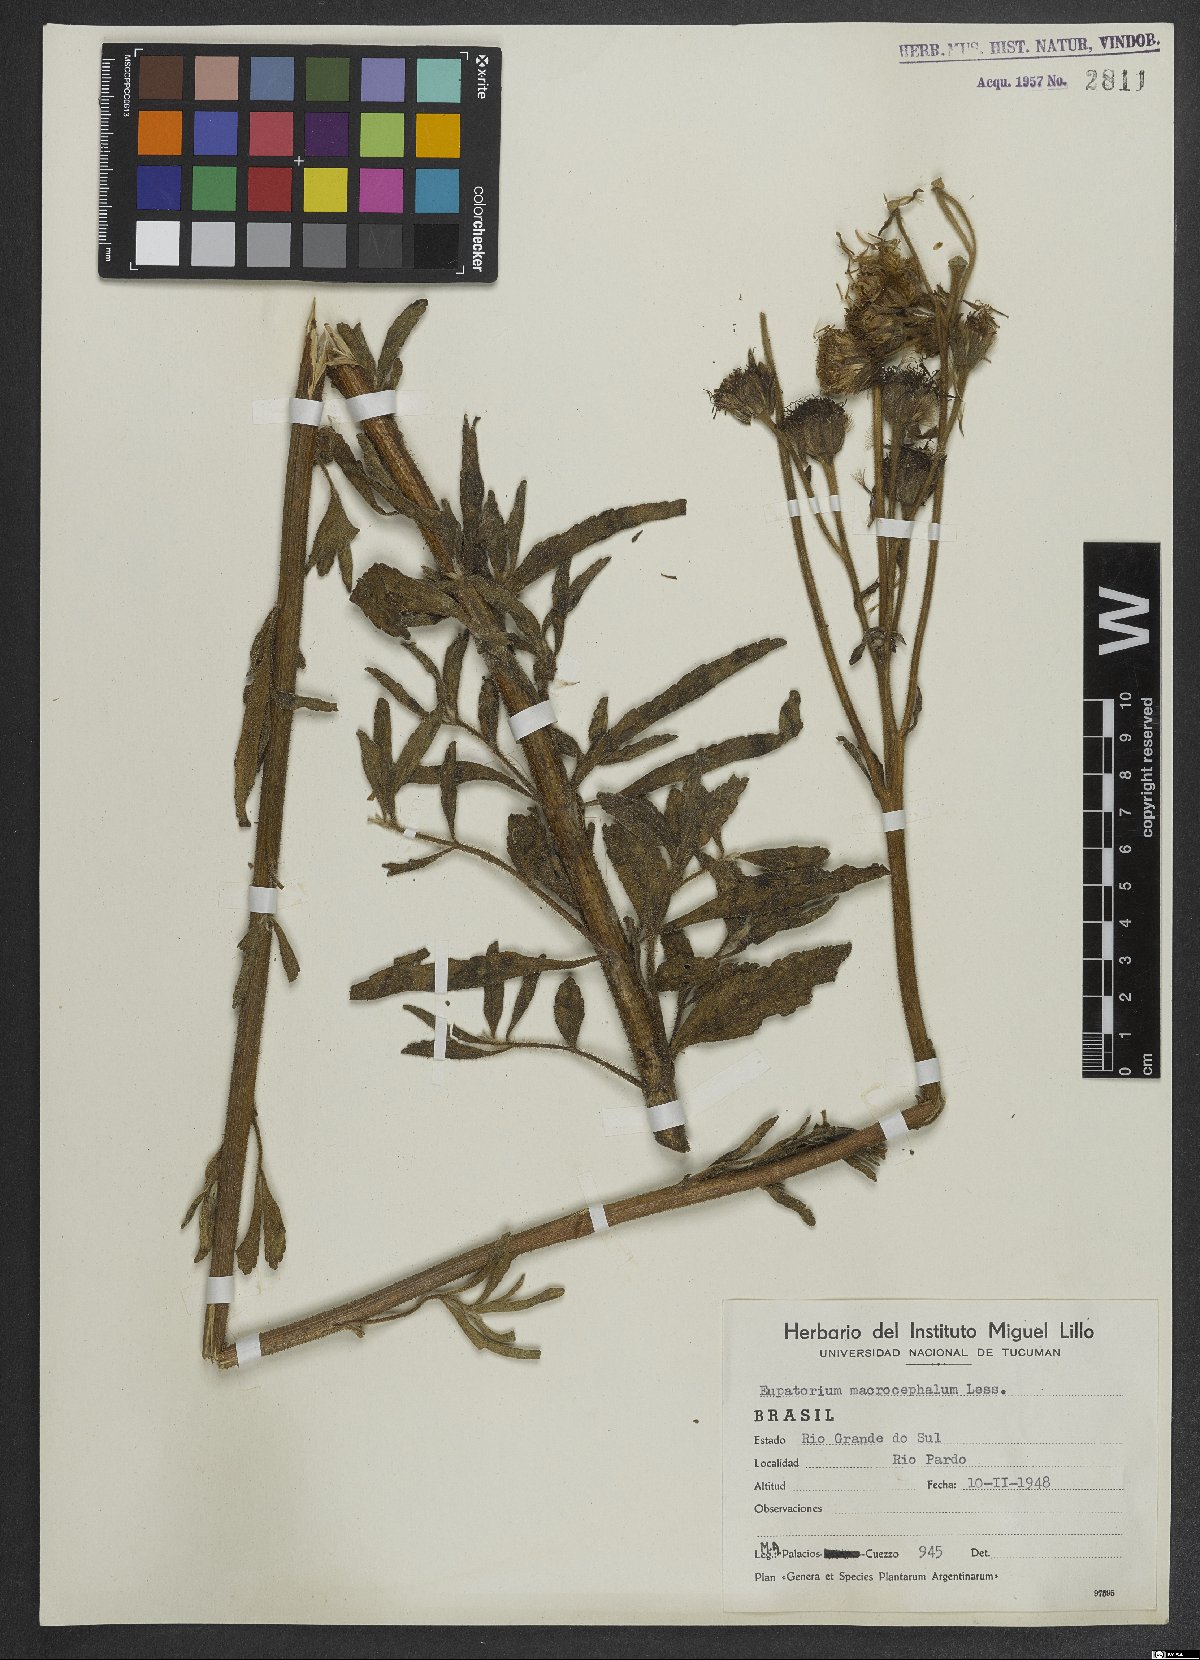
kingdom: Plantae
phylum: Tracheophyta
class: Magnoliopsida
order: Asterales
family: Asteraceae
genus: Campuloclinium
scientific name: Campuloclinium macrocephalum
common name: Pompomweed
